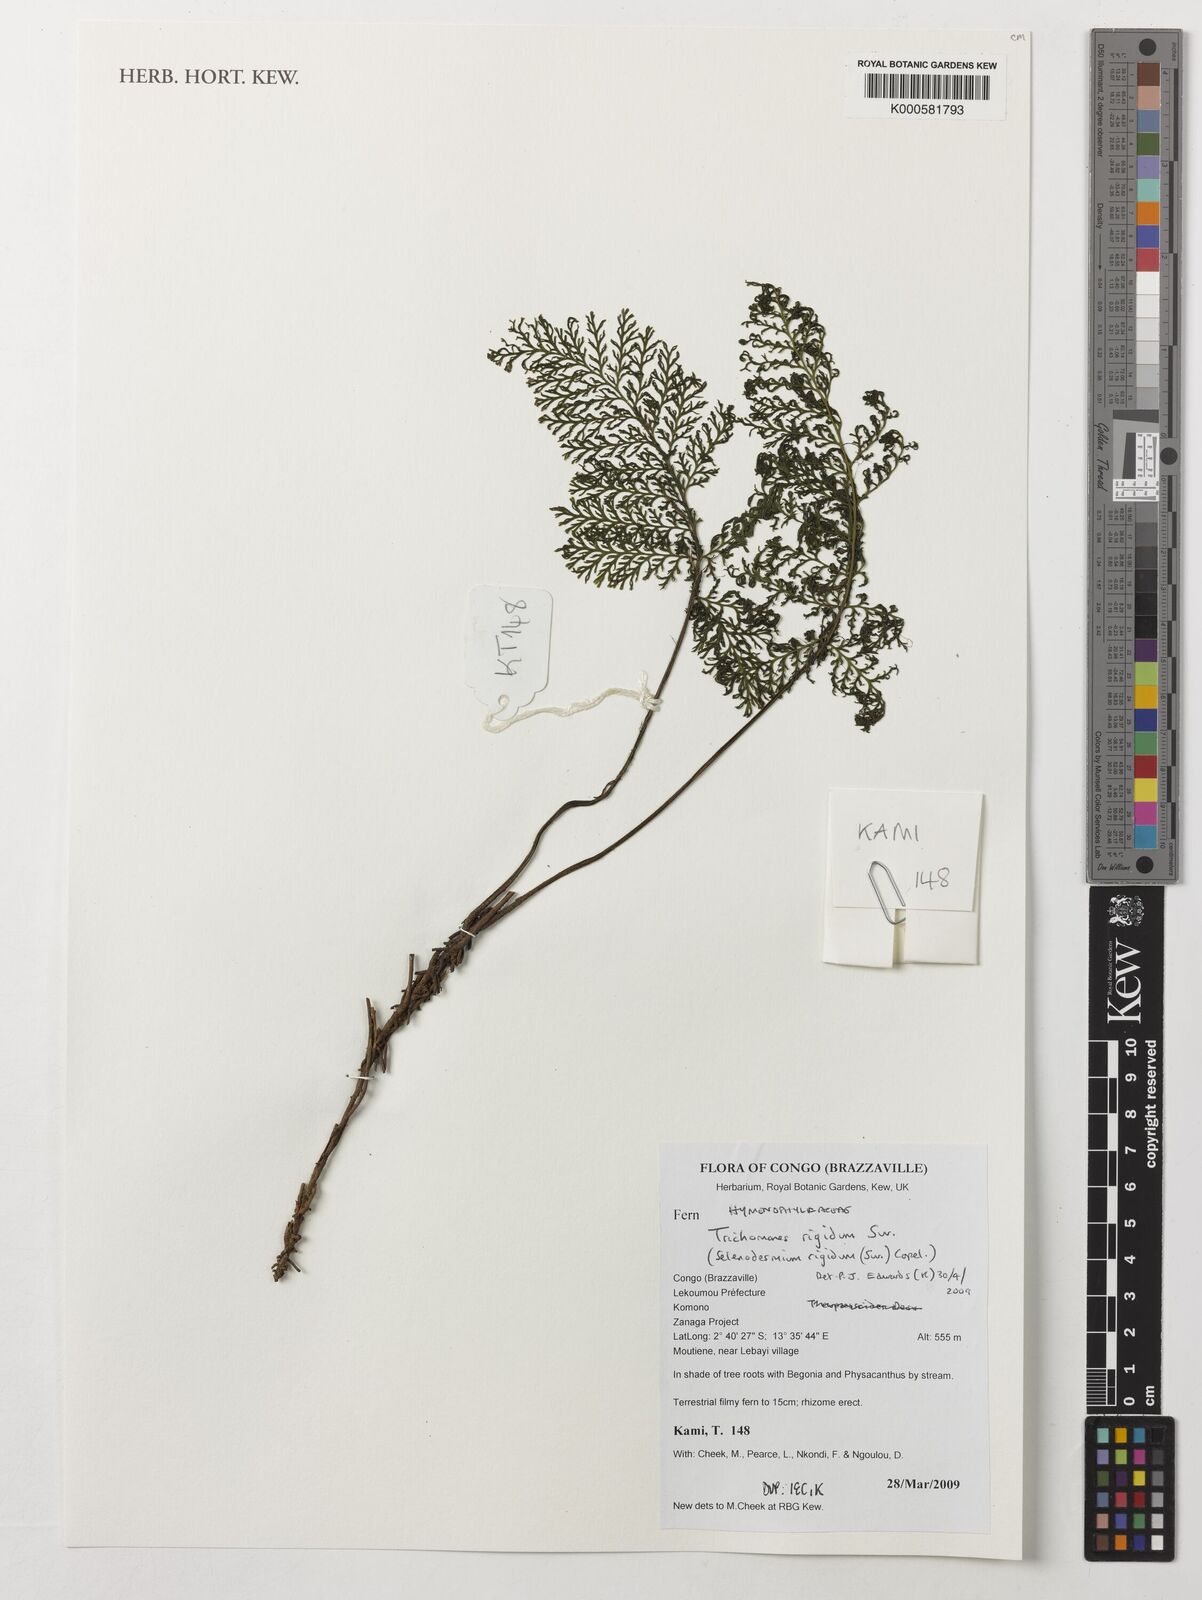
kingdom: Plantae
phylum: Tracheophyta
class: Polypodiopsida
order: Hymenophyllales
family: Hymenophyllaceae
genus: Abrodictyum
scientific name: Abrodictyum rigidum
